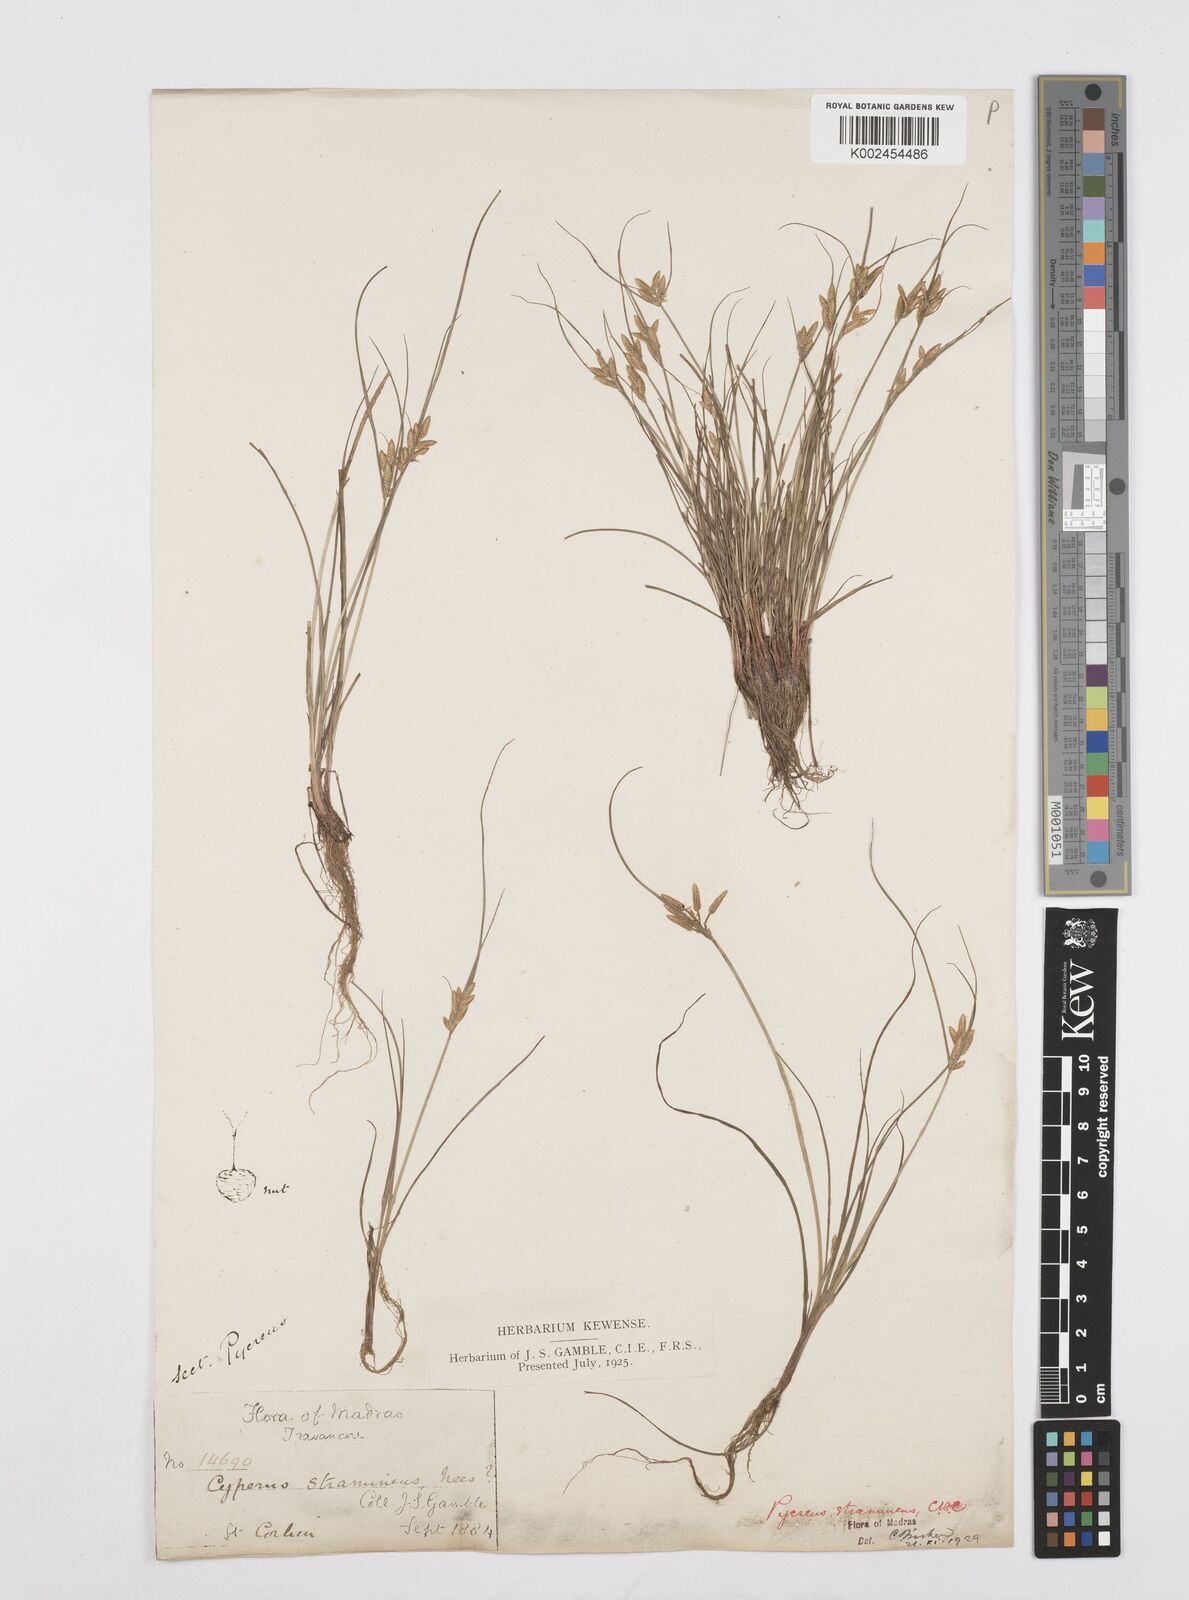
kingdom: Plantae
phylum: Tracheophyta
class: Liliopsida
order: Poales
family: Cyperaceae
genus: Cyperus
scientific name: Cyperus substramineus
